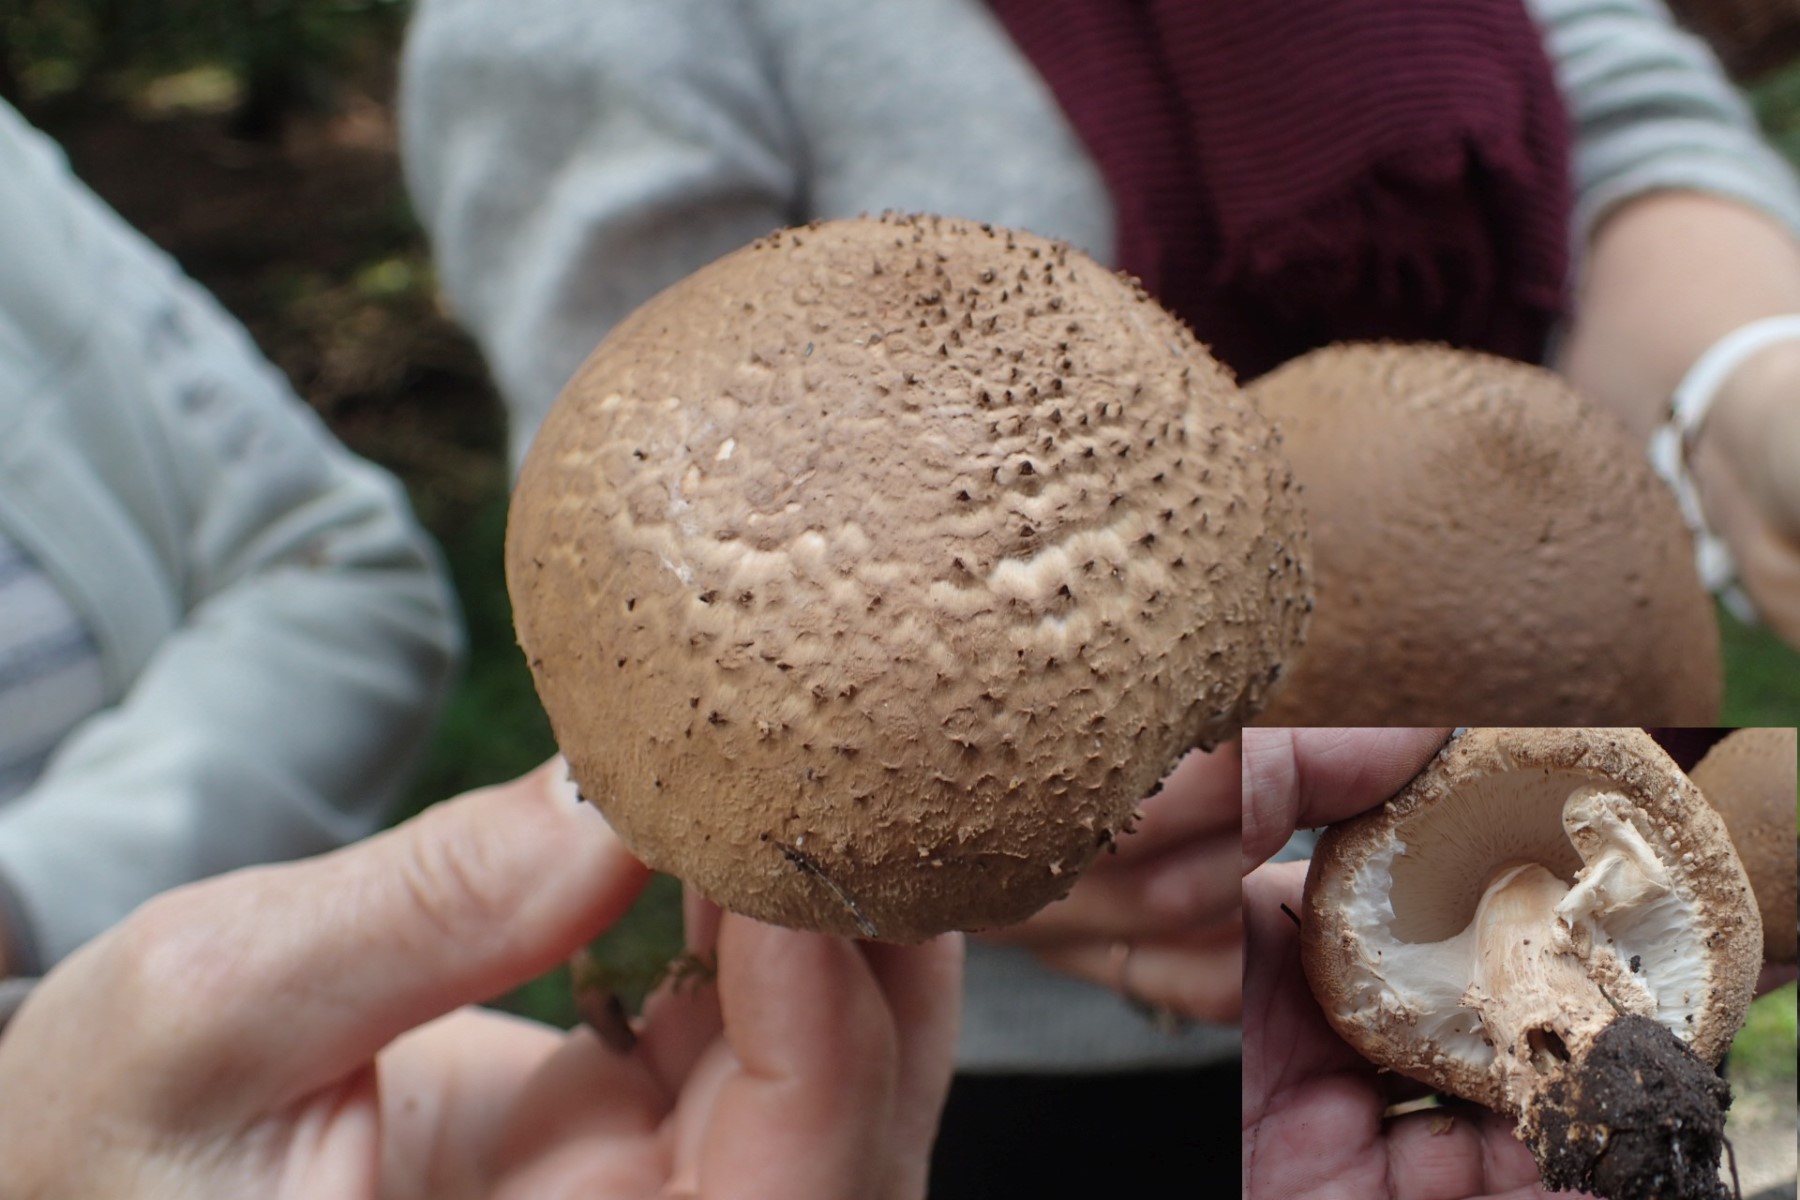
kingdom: Fungi
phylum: Basidiomycota
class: Agaricomycetes
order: Agaricales
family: Agaricaceae
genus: Echinoderma
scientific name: Echinoderma asperum
